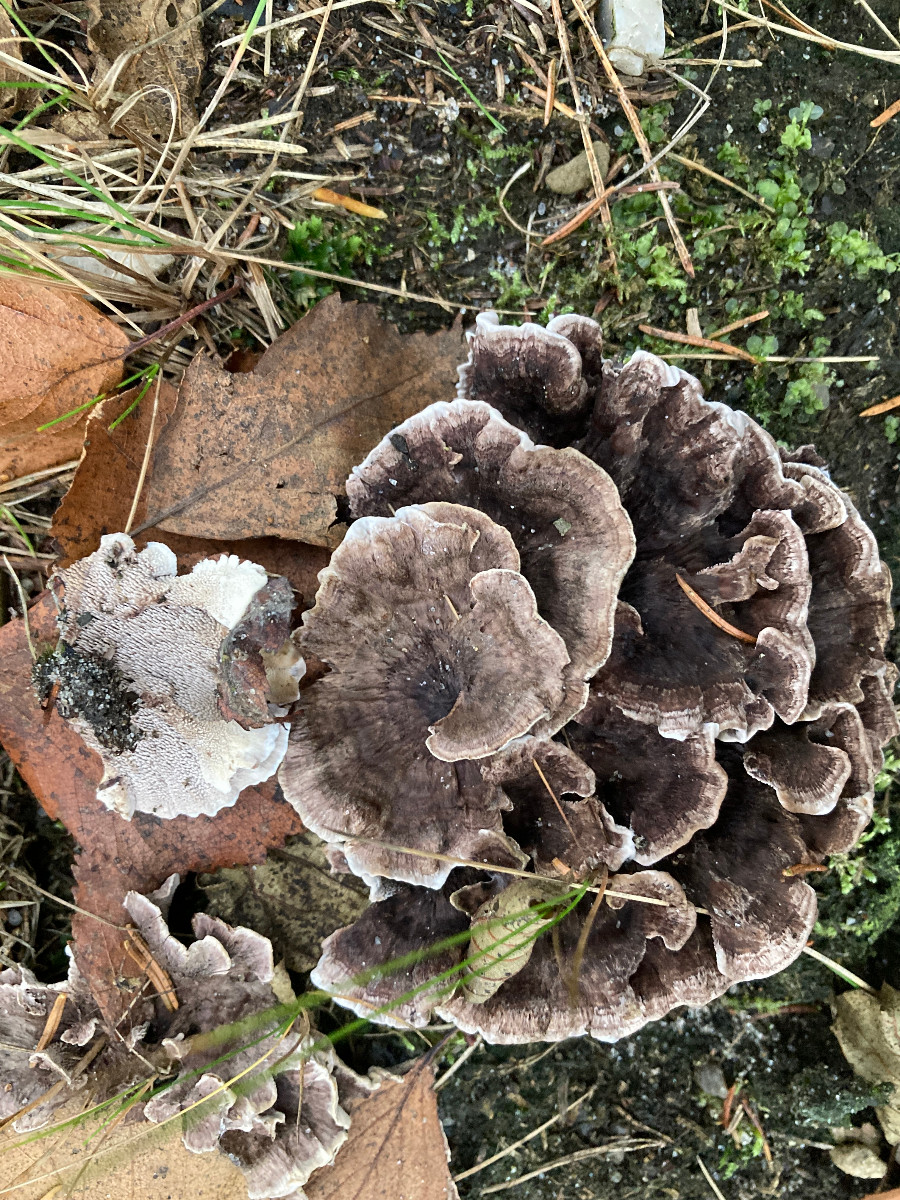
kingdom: Fungi
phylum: Basidiomycota
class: Agaricomycetes
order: Thelephorales
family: Thelephoraceae
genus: Phellodon
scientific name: Phellodon tomentosus
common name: vellugtende duftpigsvamp
